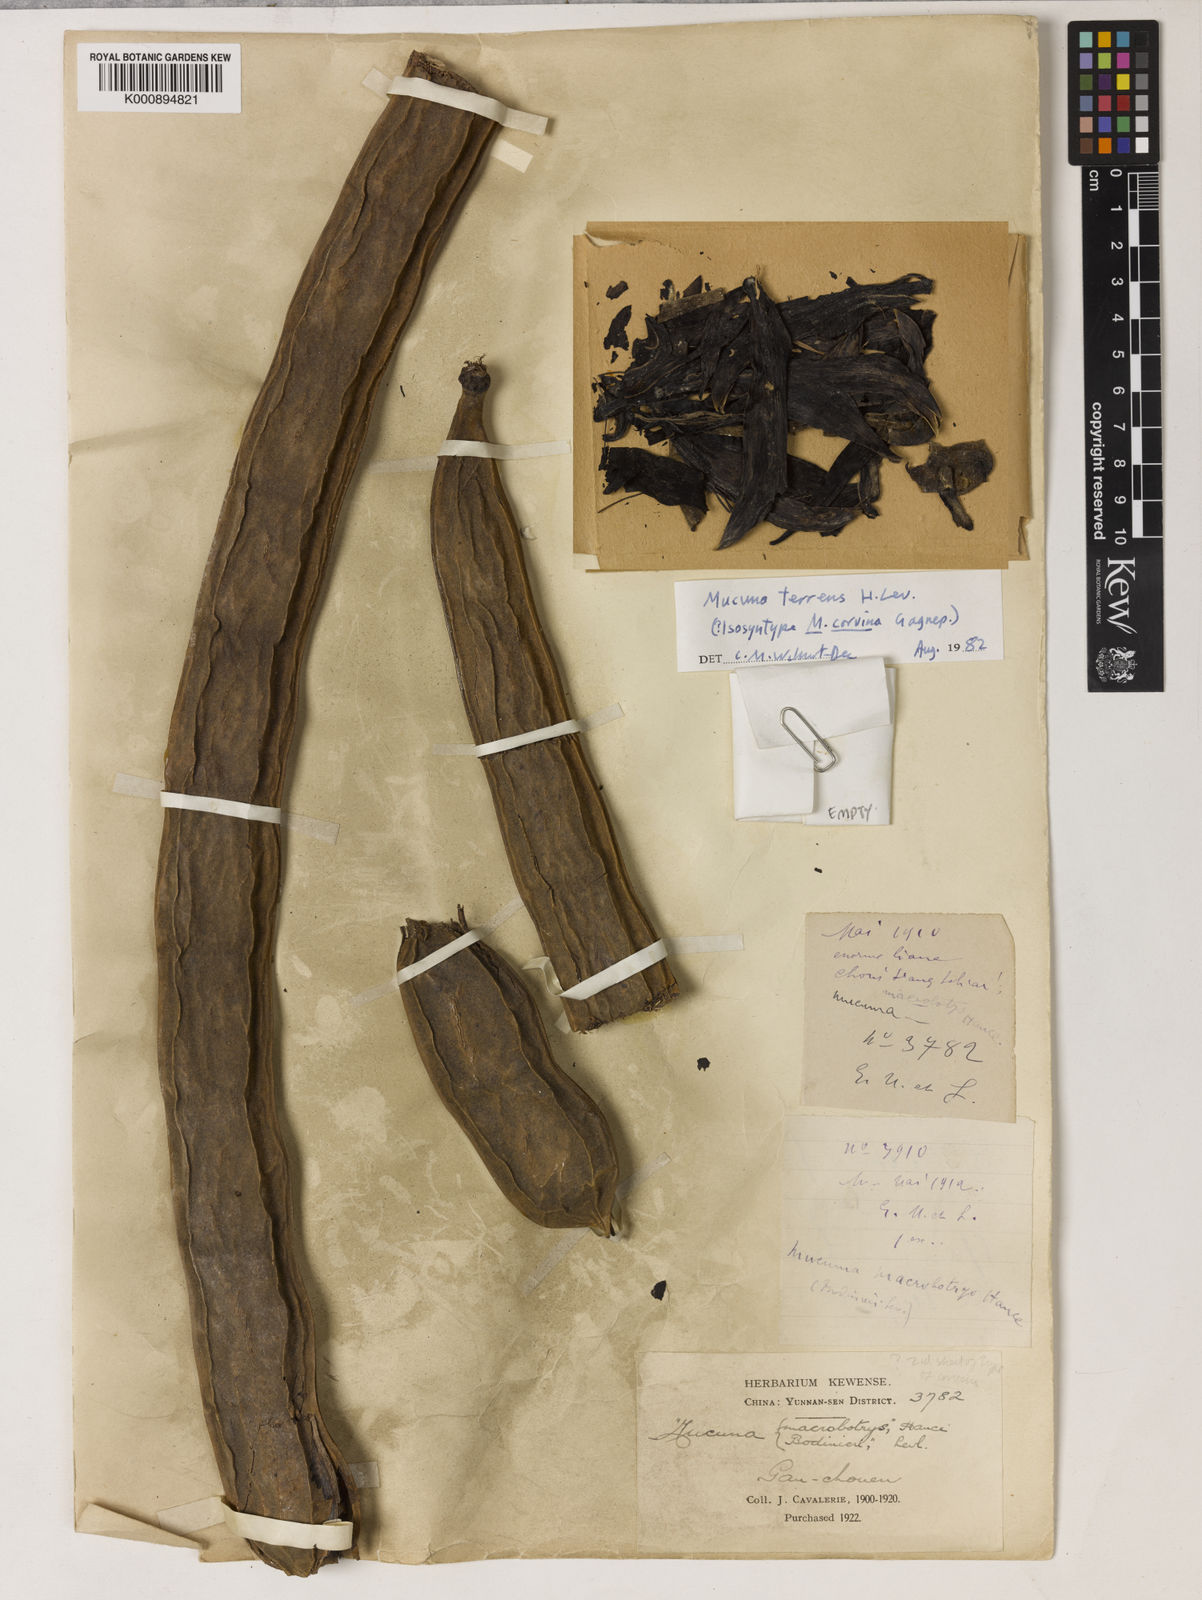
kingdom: Plantae
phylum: Tracheophyta
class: Magnoliopsida
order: Fabales
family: Fabaceae
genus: Mucuna
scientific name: Mucuna
